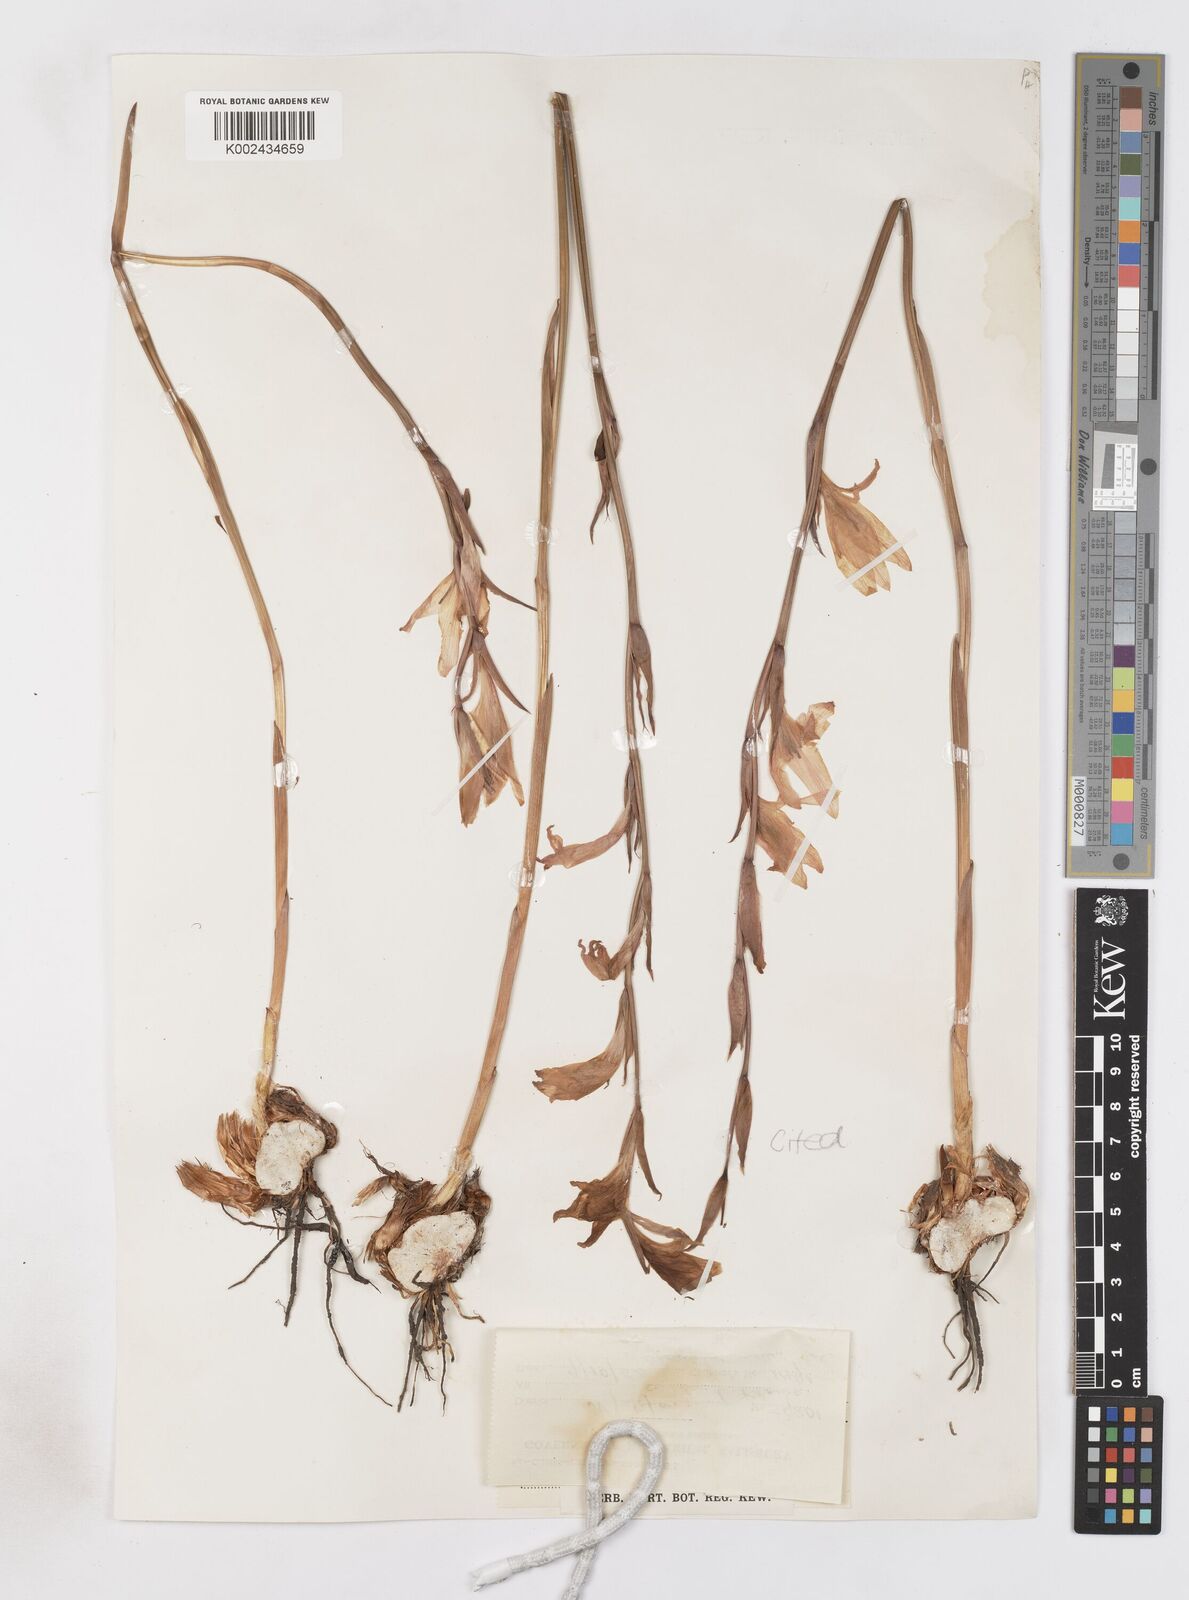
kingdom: Plantae
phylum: Tracheophyta
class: Liliopsida
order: Asparagales
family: Iridaceae
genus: Gladiolus
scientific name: Gladiolus melleri
